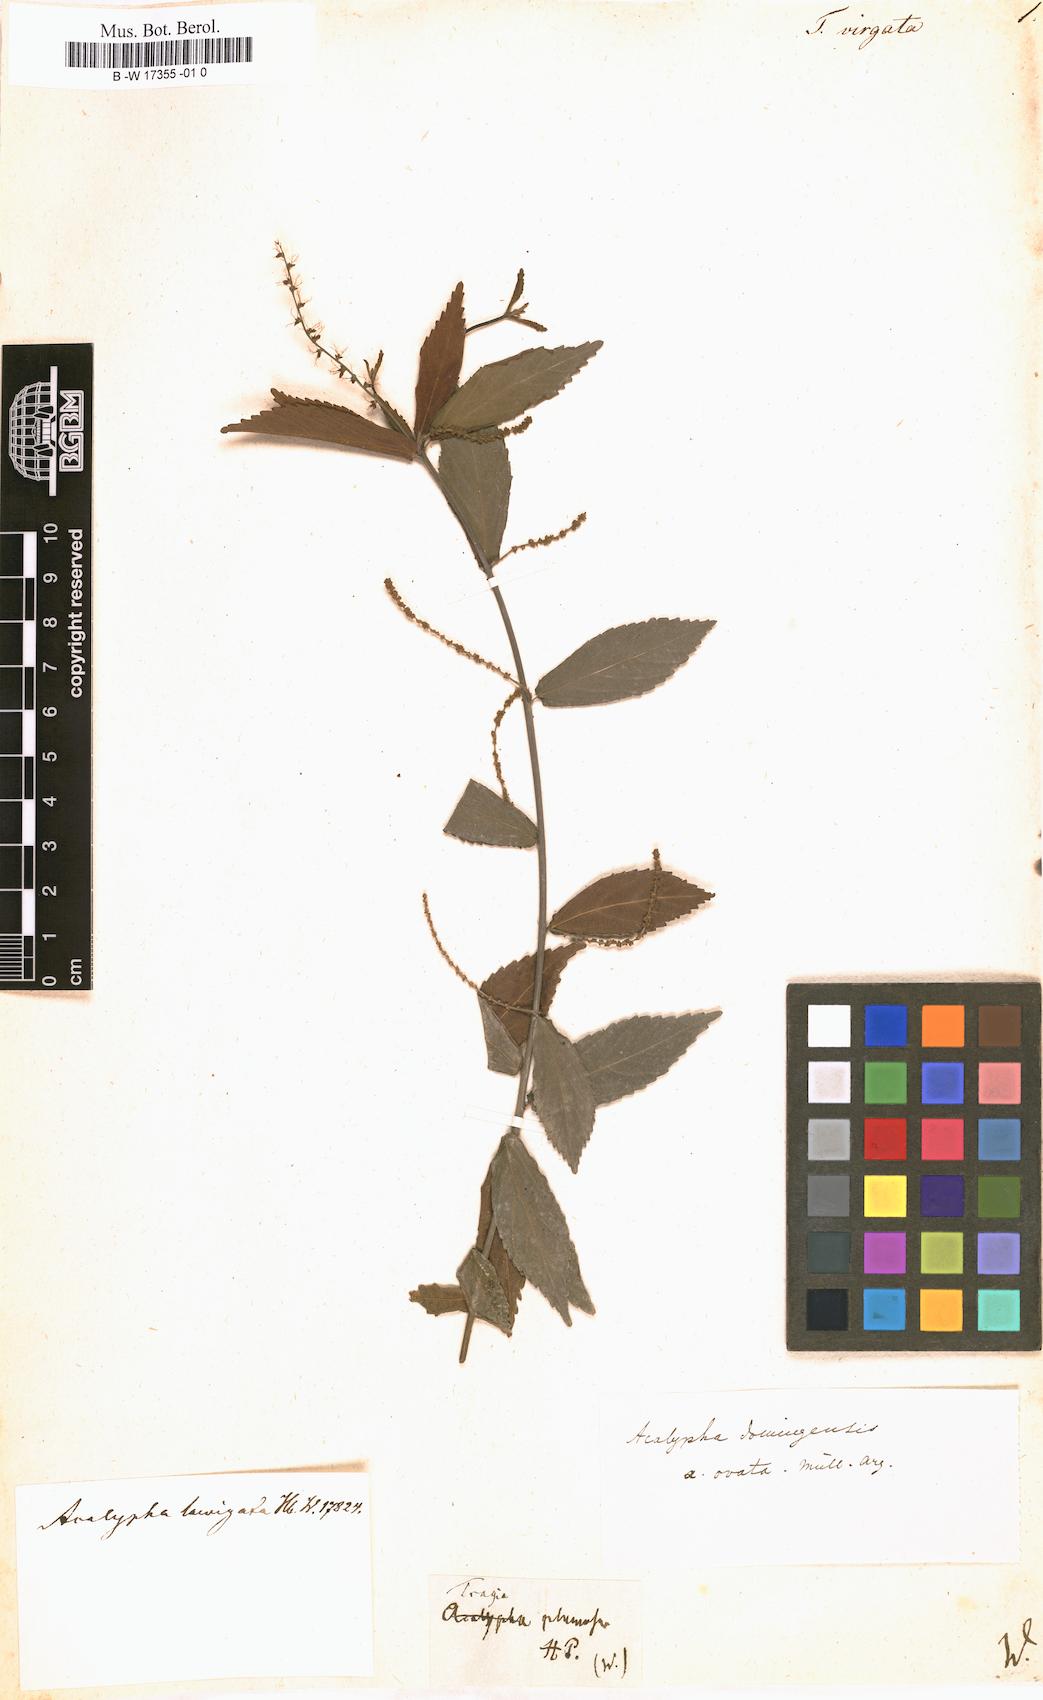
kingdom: Plantae
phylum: Tracheophyta
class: Magnoliopsida
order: Malpighiales
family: Euphorbiaceae
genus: Tragia
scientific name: Tragia volubilis
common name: Twining cow-itch
